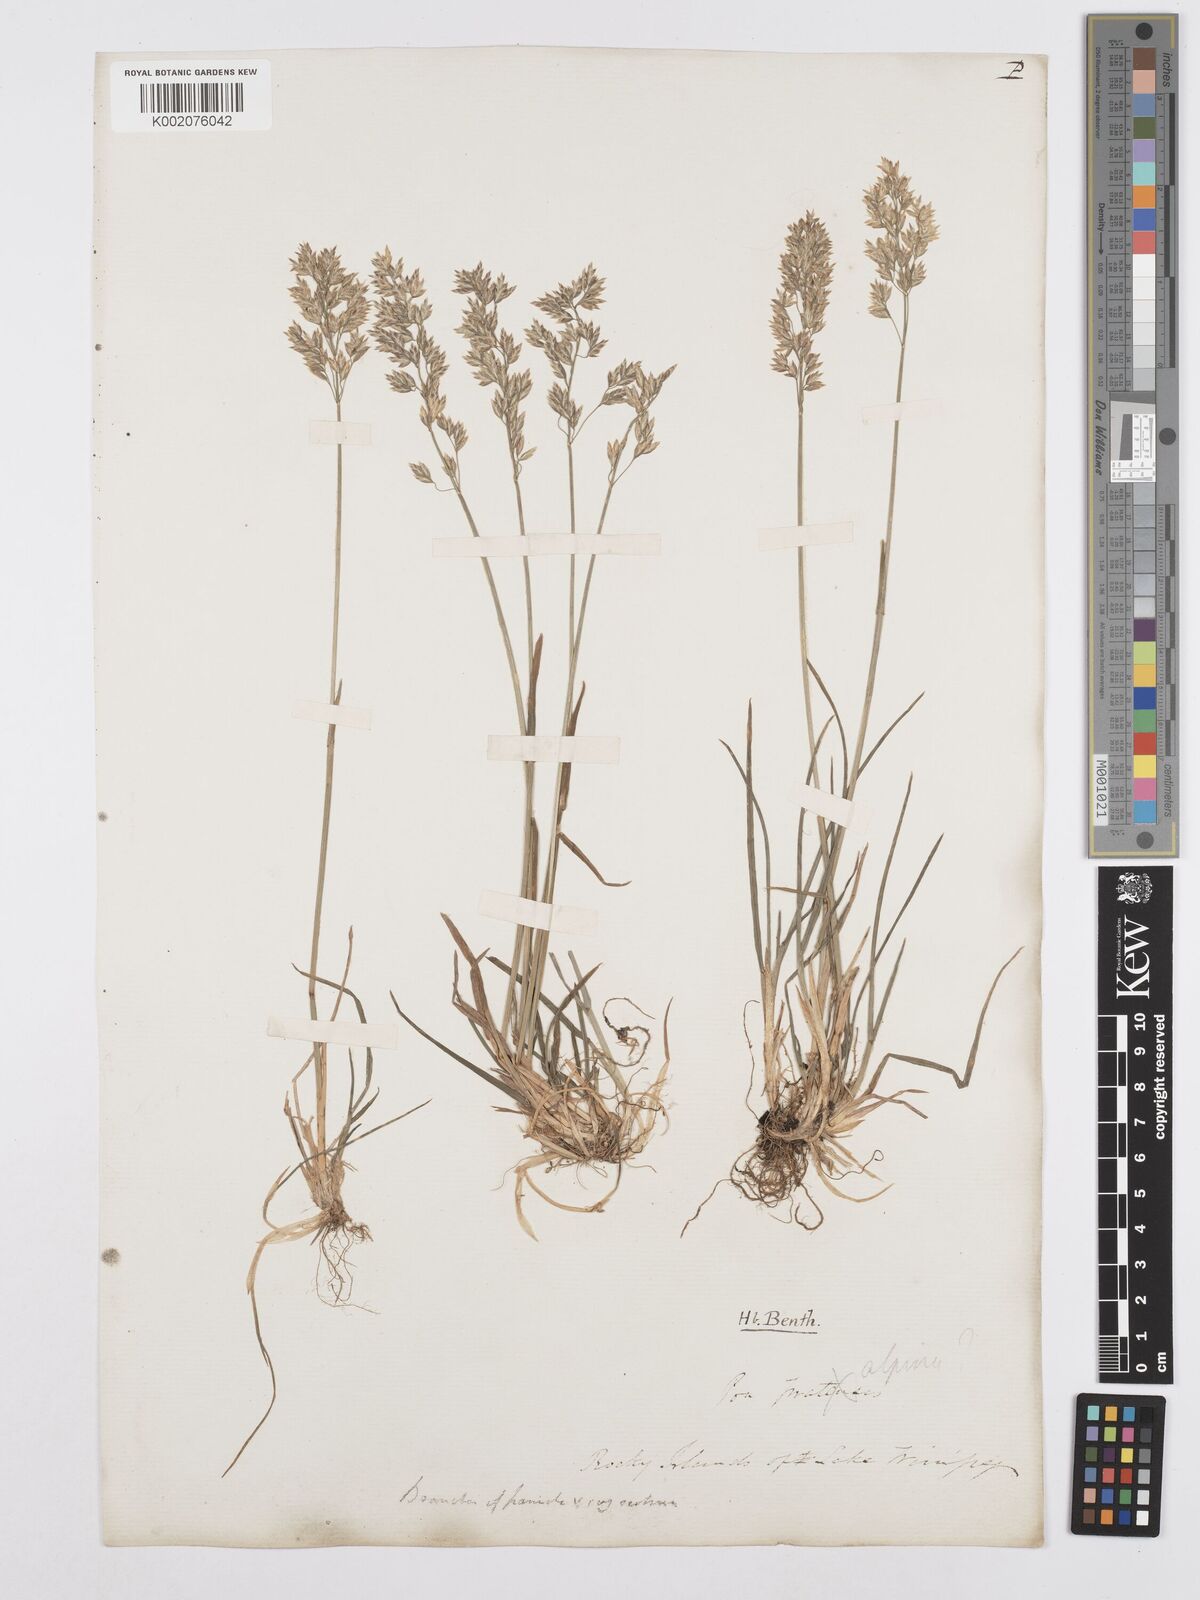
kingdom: Plantae
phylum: Tracheophyta
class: Liliopsida
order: Poales
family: Poaceae
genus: Poa
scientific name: Poa alpina
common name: Alpine bluegrass
